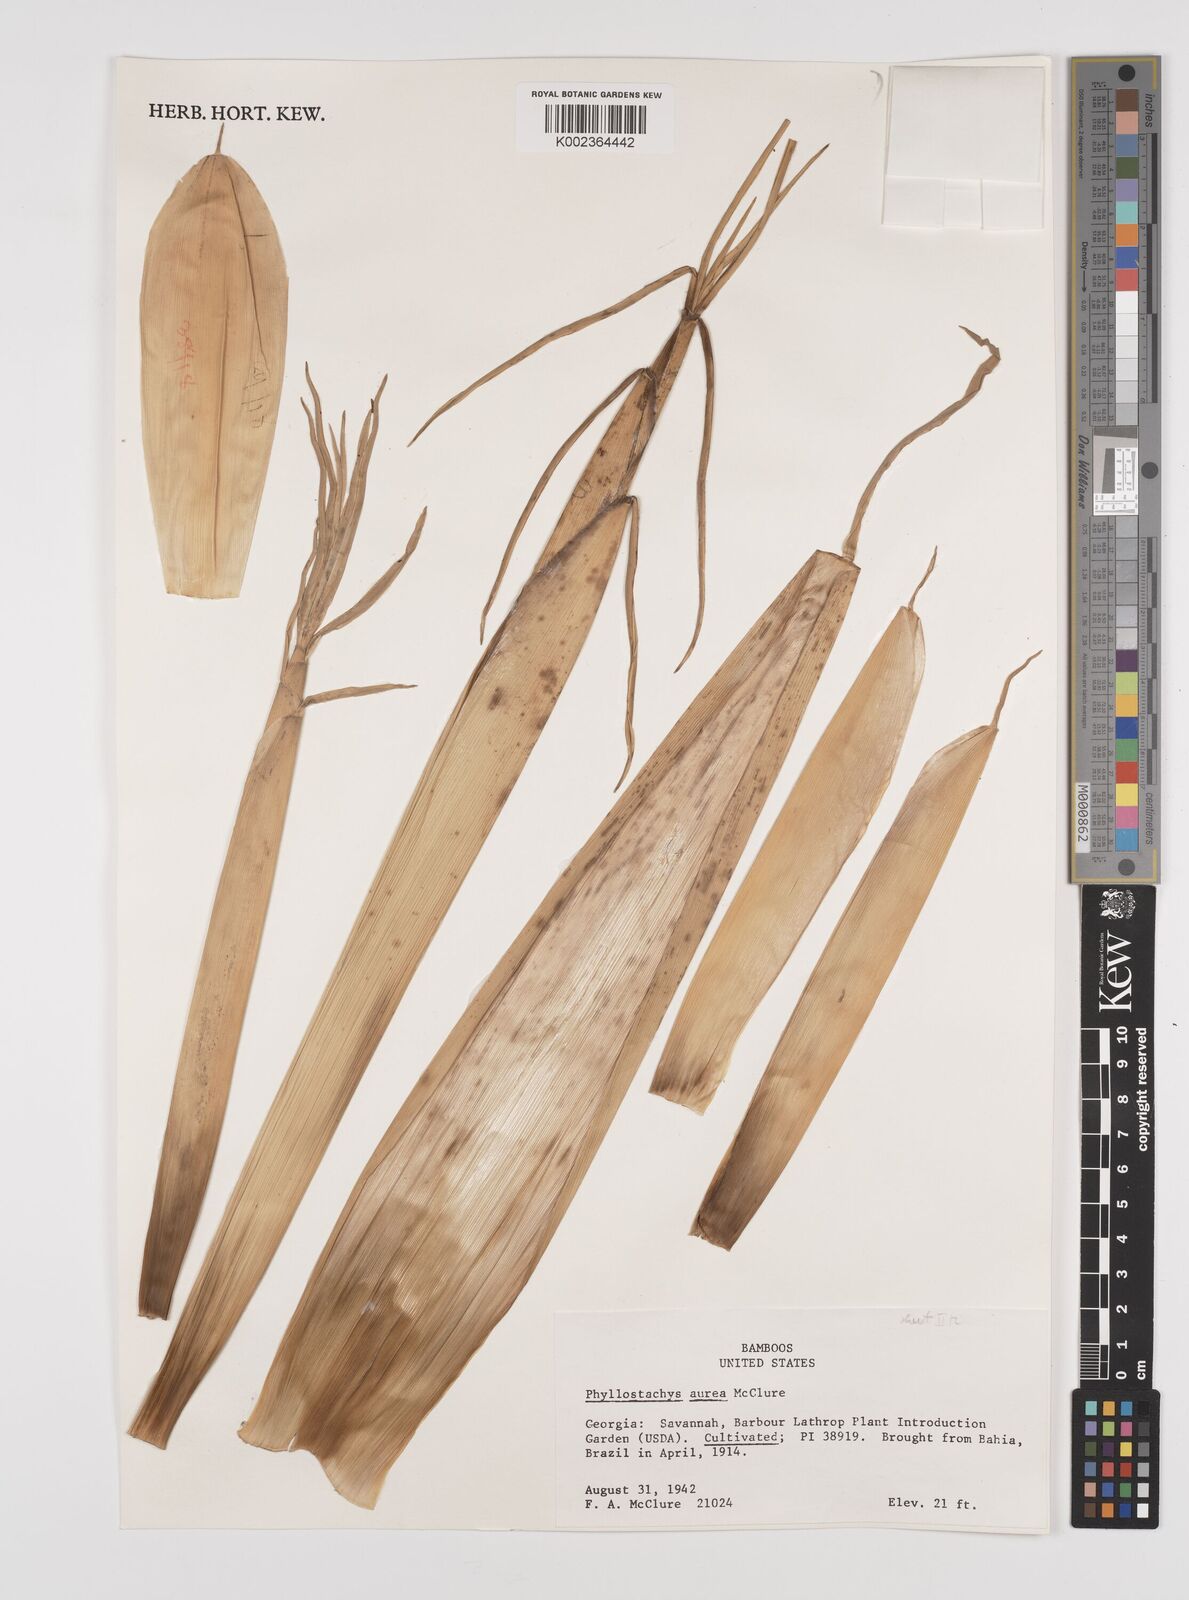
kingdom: Plantae
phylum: Tracheophyta
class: Liliopsida
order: Poales
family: Poaceae
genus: Phyllostachys
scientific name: Phyllostachys aurea
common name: Golden bamboo
